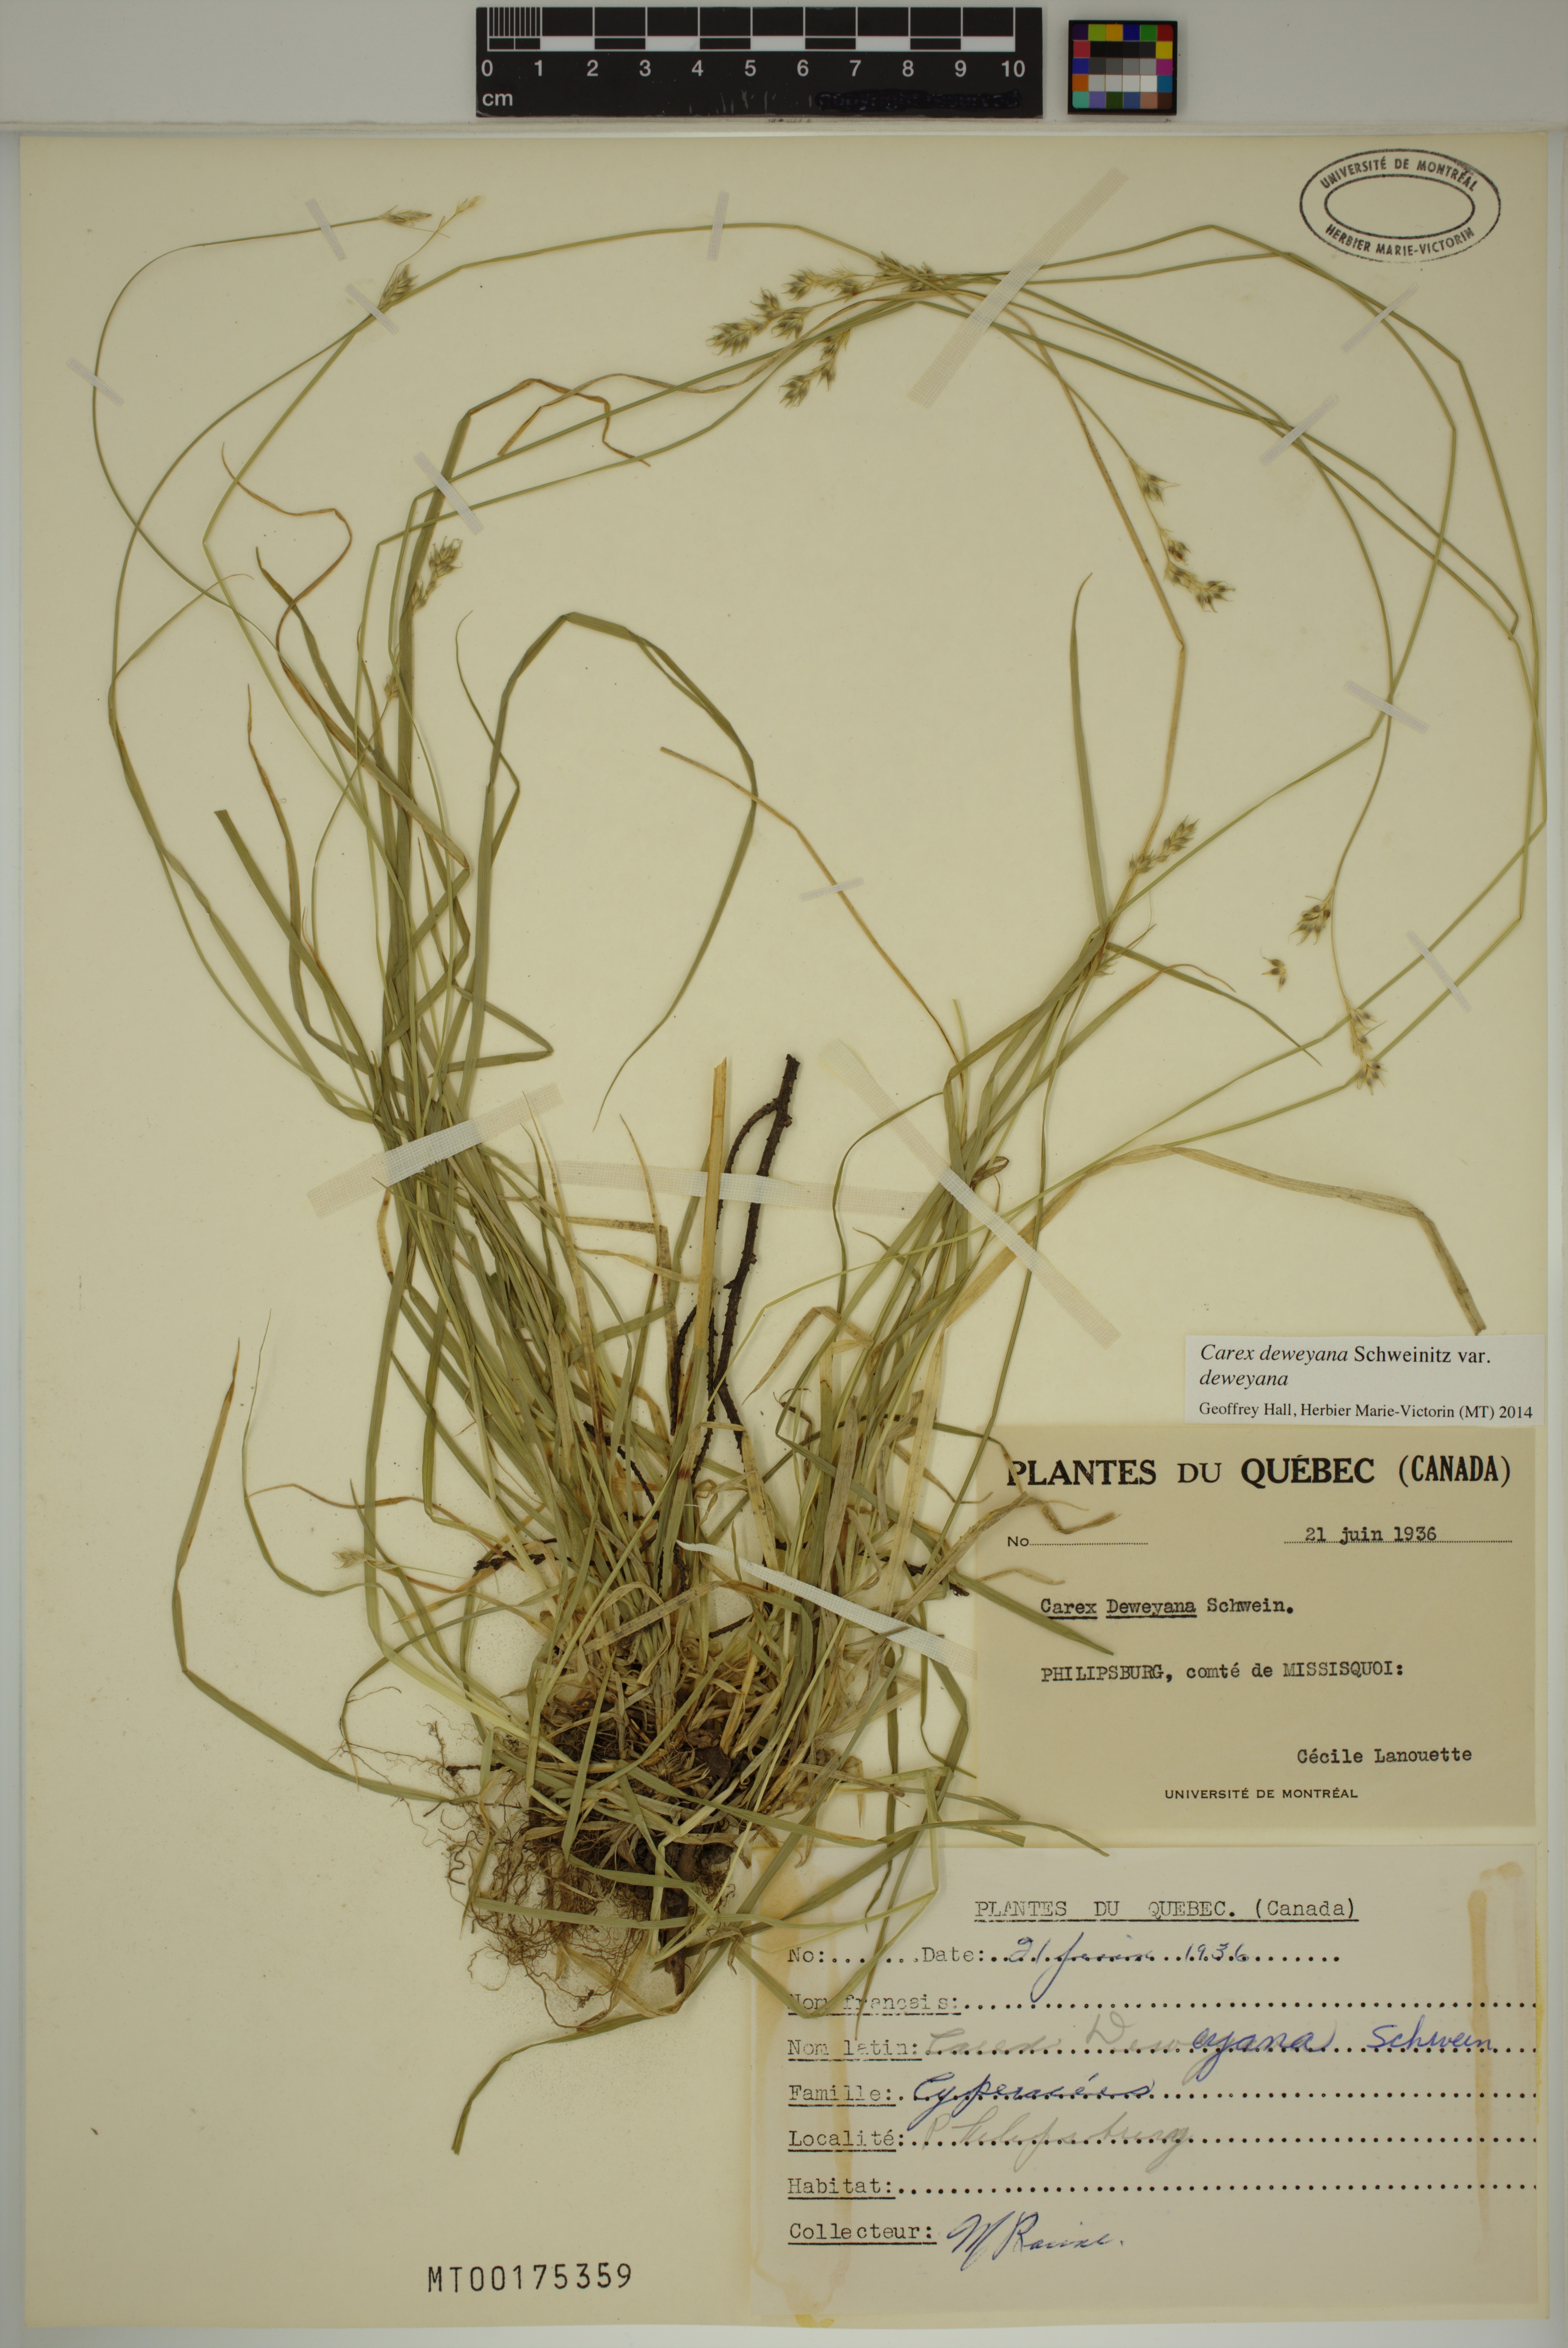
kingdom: Plantae
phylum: Tracheophyta
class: Liliopsida
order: Poales
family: Cyperaceae
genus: Carex
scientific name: Carex deweyana
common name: Dewey's sedge
